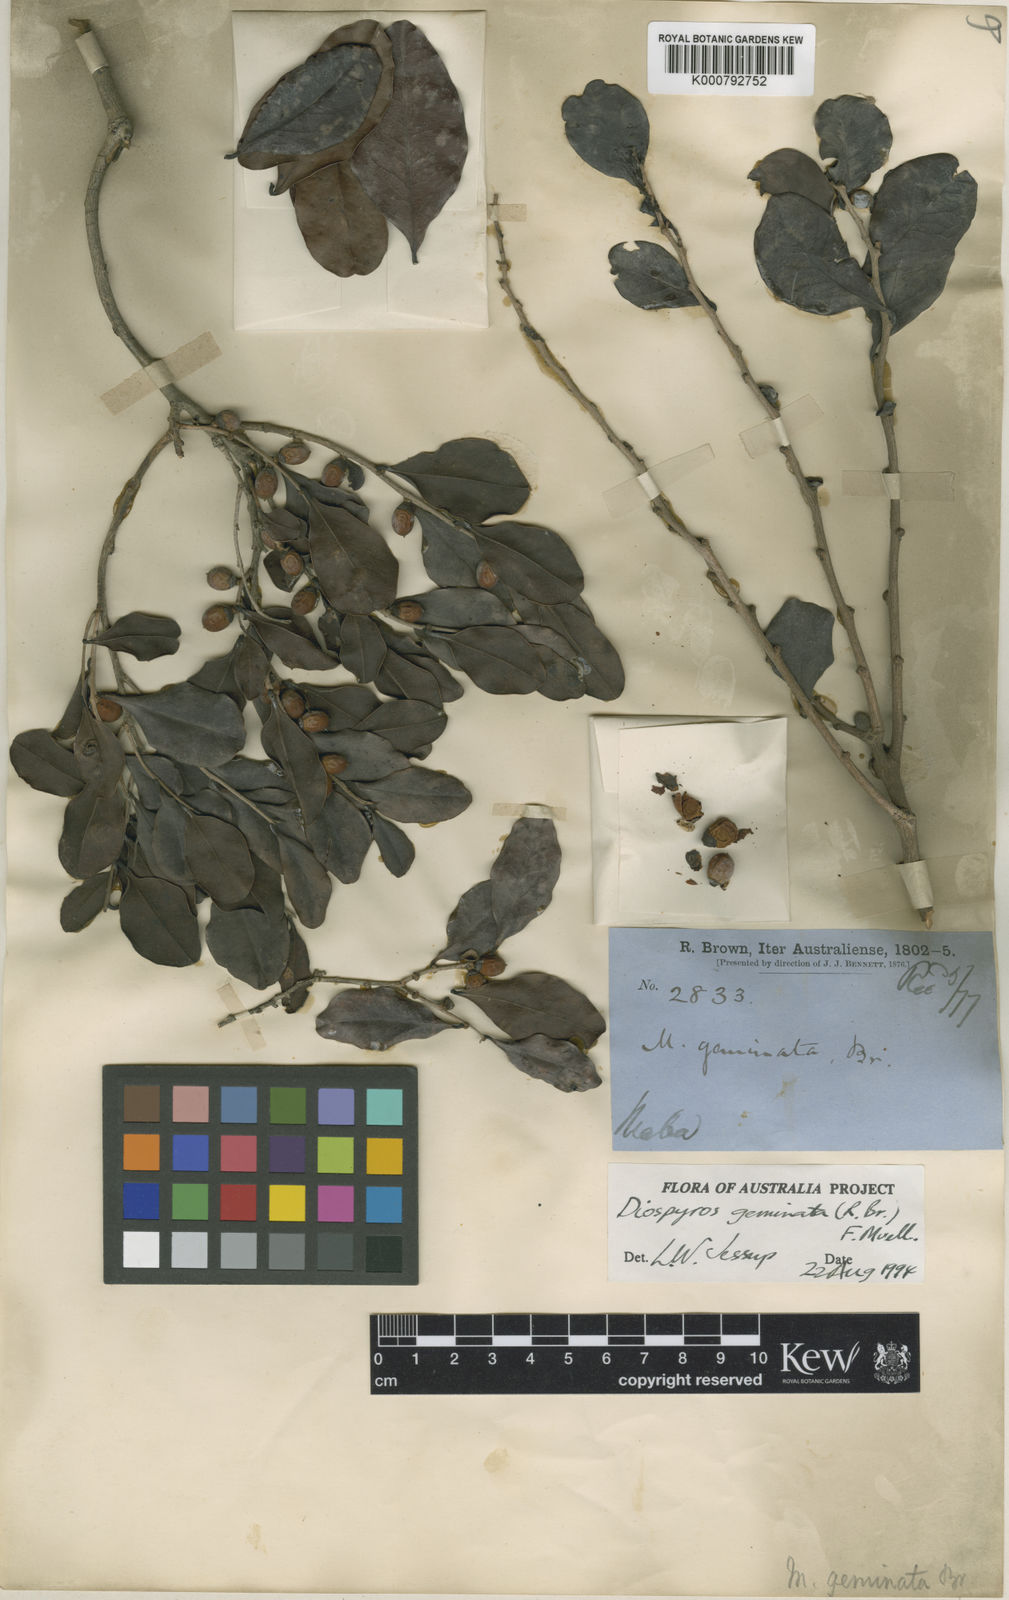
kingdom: Plantae
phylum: Tracheophyta
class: Magnoliopsida
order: Ericales
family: Ebenaceae
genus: Diospyros
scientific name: Diospyros geminata
